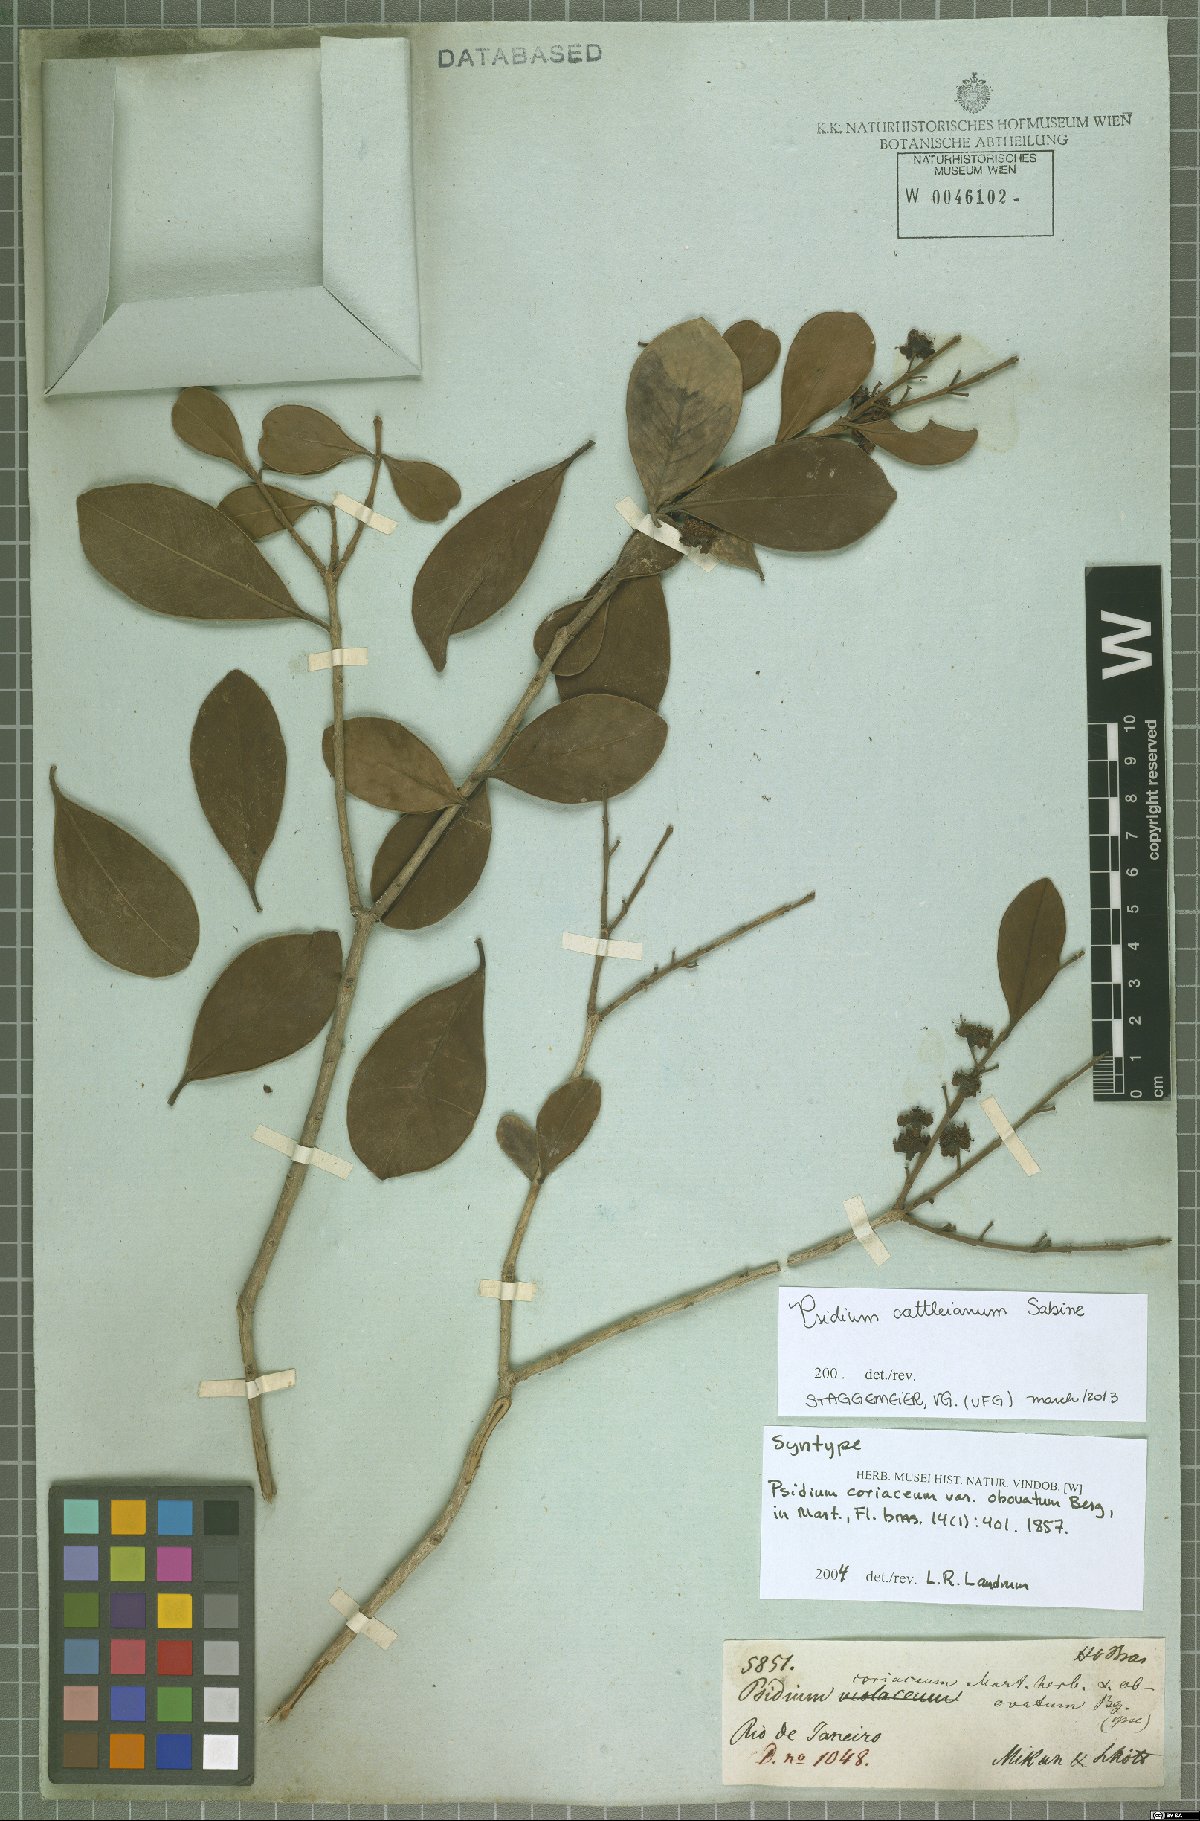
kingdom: Plantae
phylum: Tracheophyta
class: Magnoliopsida
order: Myrtales
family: Myrtaceae
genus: Psidium
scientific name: Psidium cattleianum
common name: Strawberry guava
